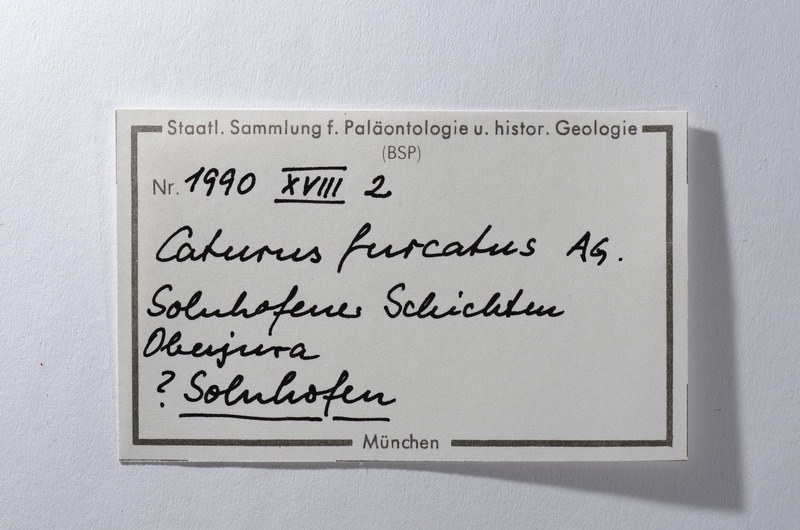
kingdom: Animalia
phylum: Chordata
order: Amiiformes
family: Caturidae
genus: Caturus
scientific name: Caturus furcatus
